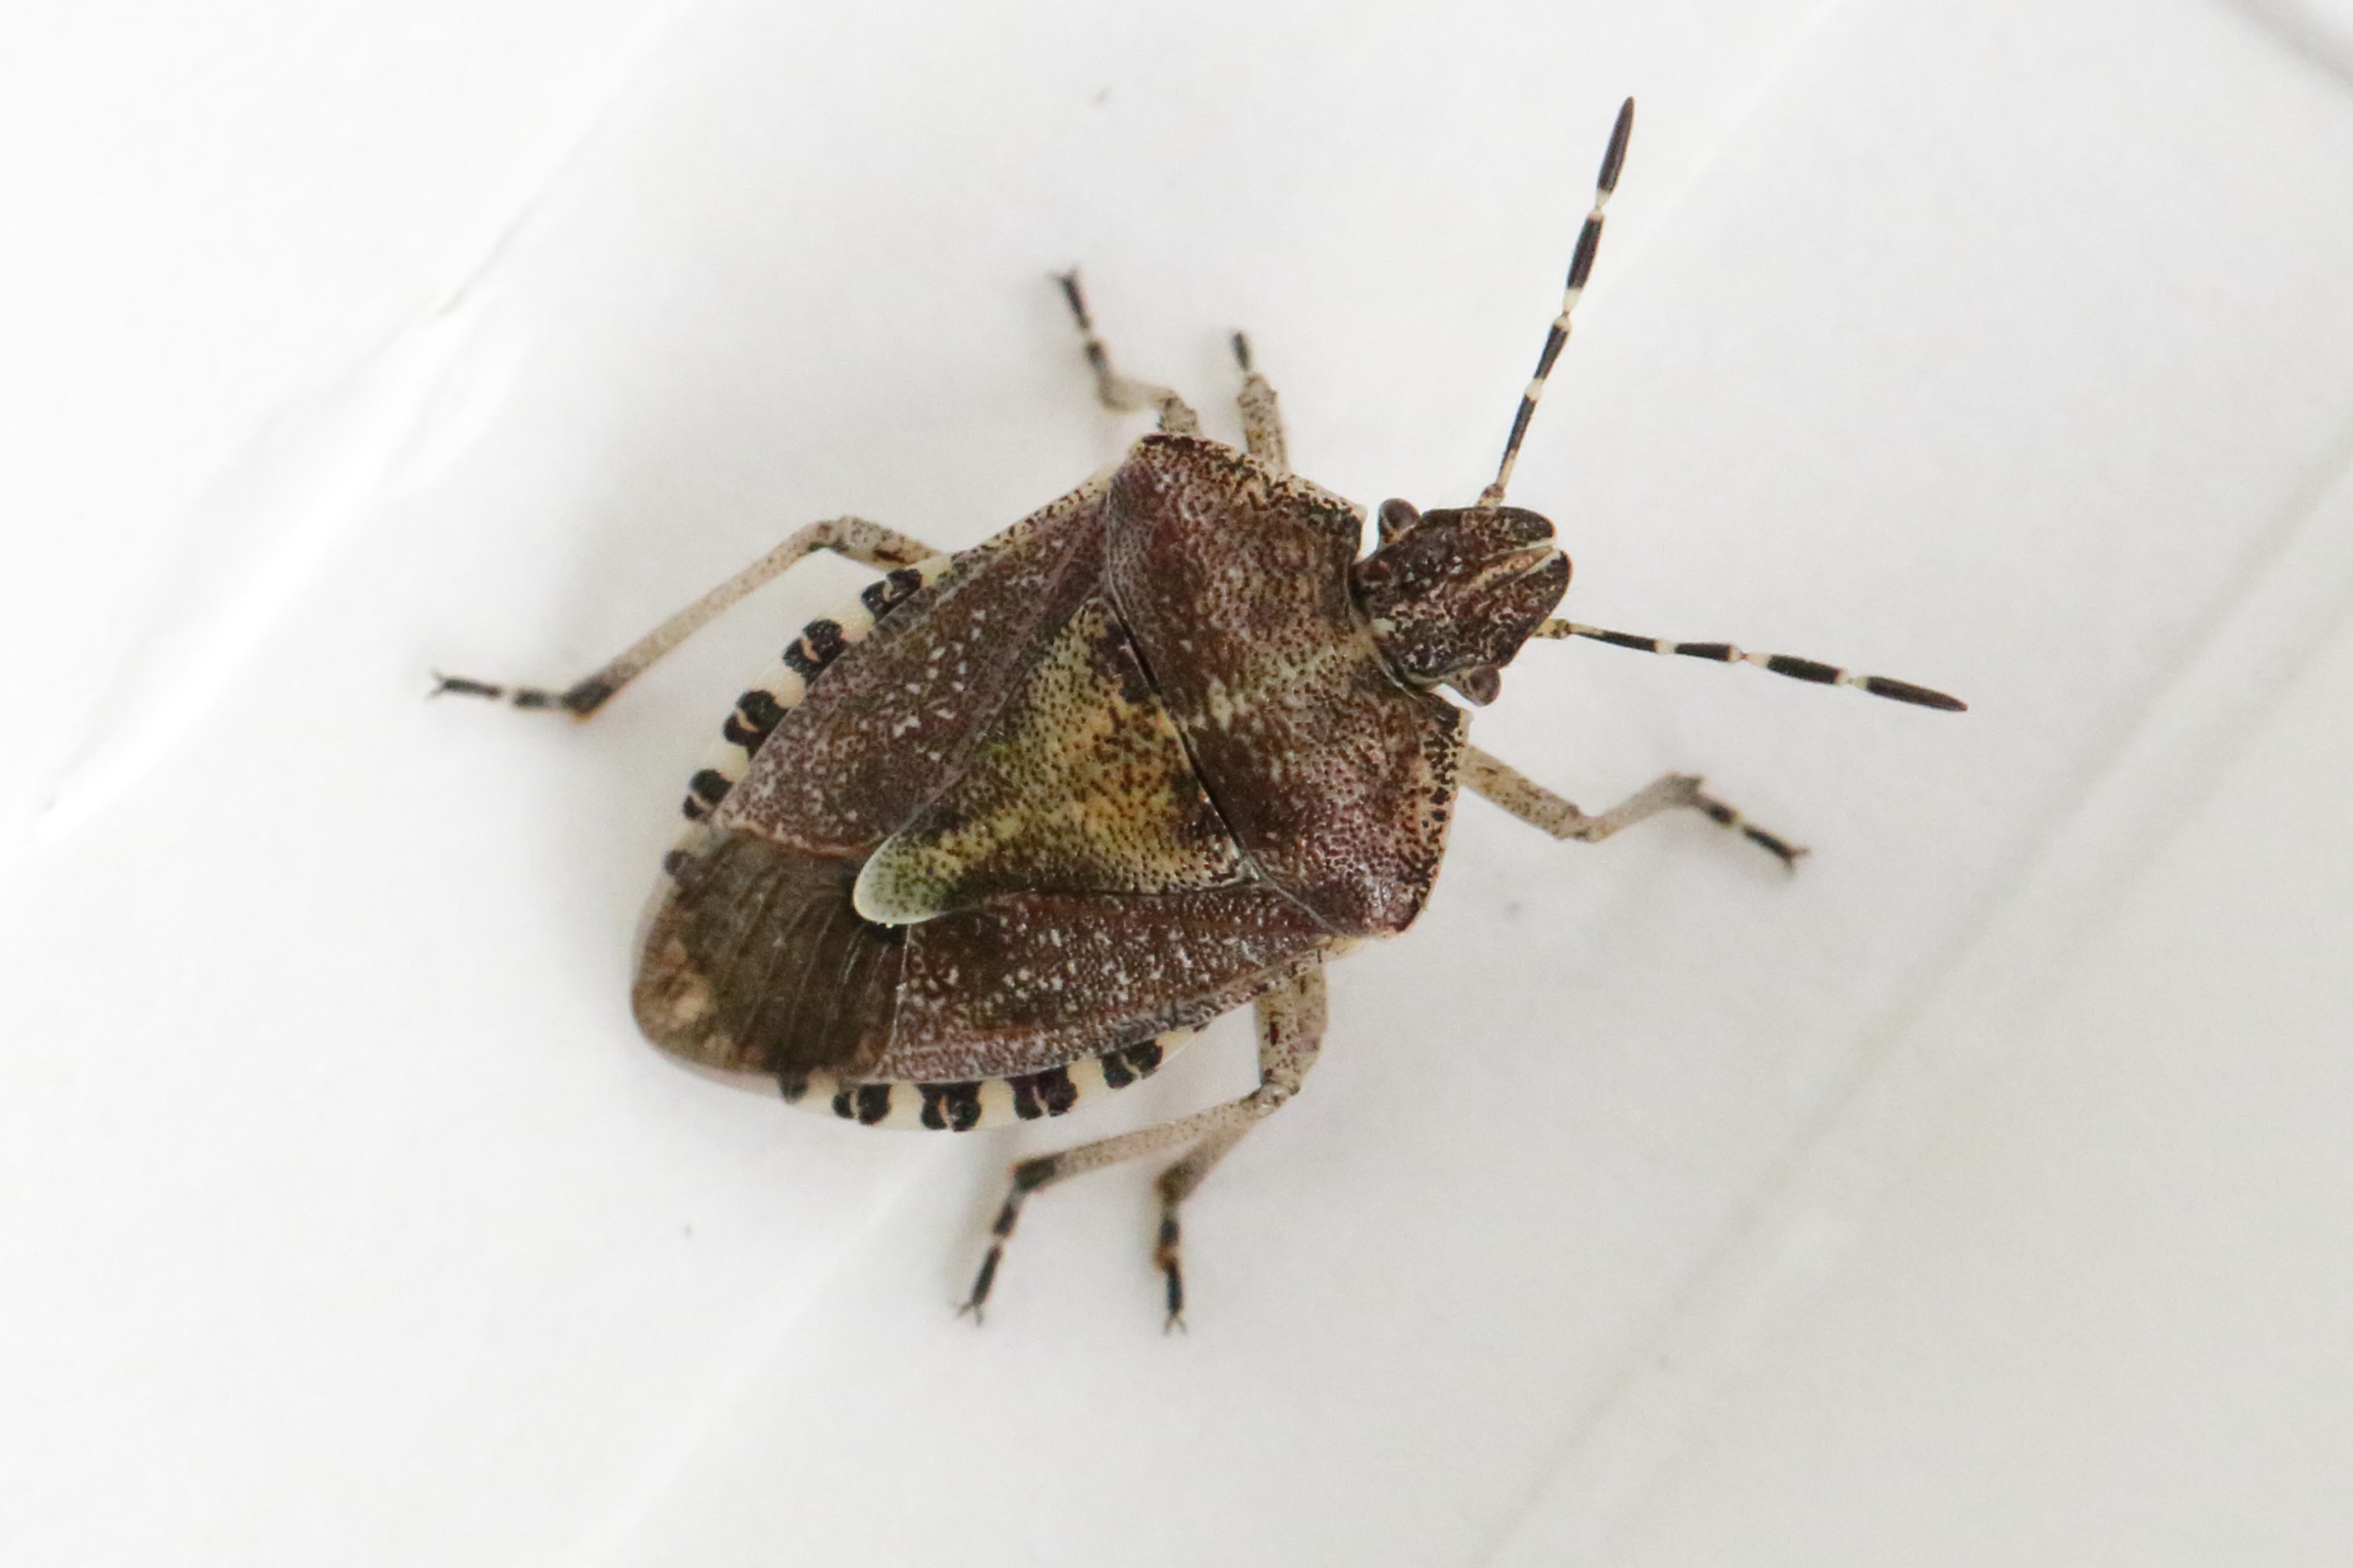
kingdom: Animalia
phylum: Arthropoda
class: Insecta
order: Hemiptera
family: Pentatomidae
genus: Dolycoris
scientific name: Dolycoris baccarum
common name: Almindelig bærtæge
